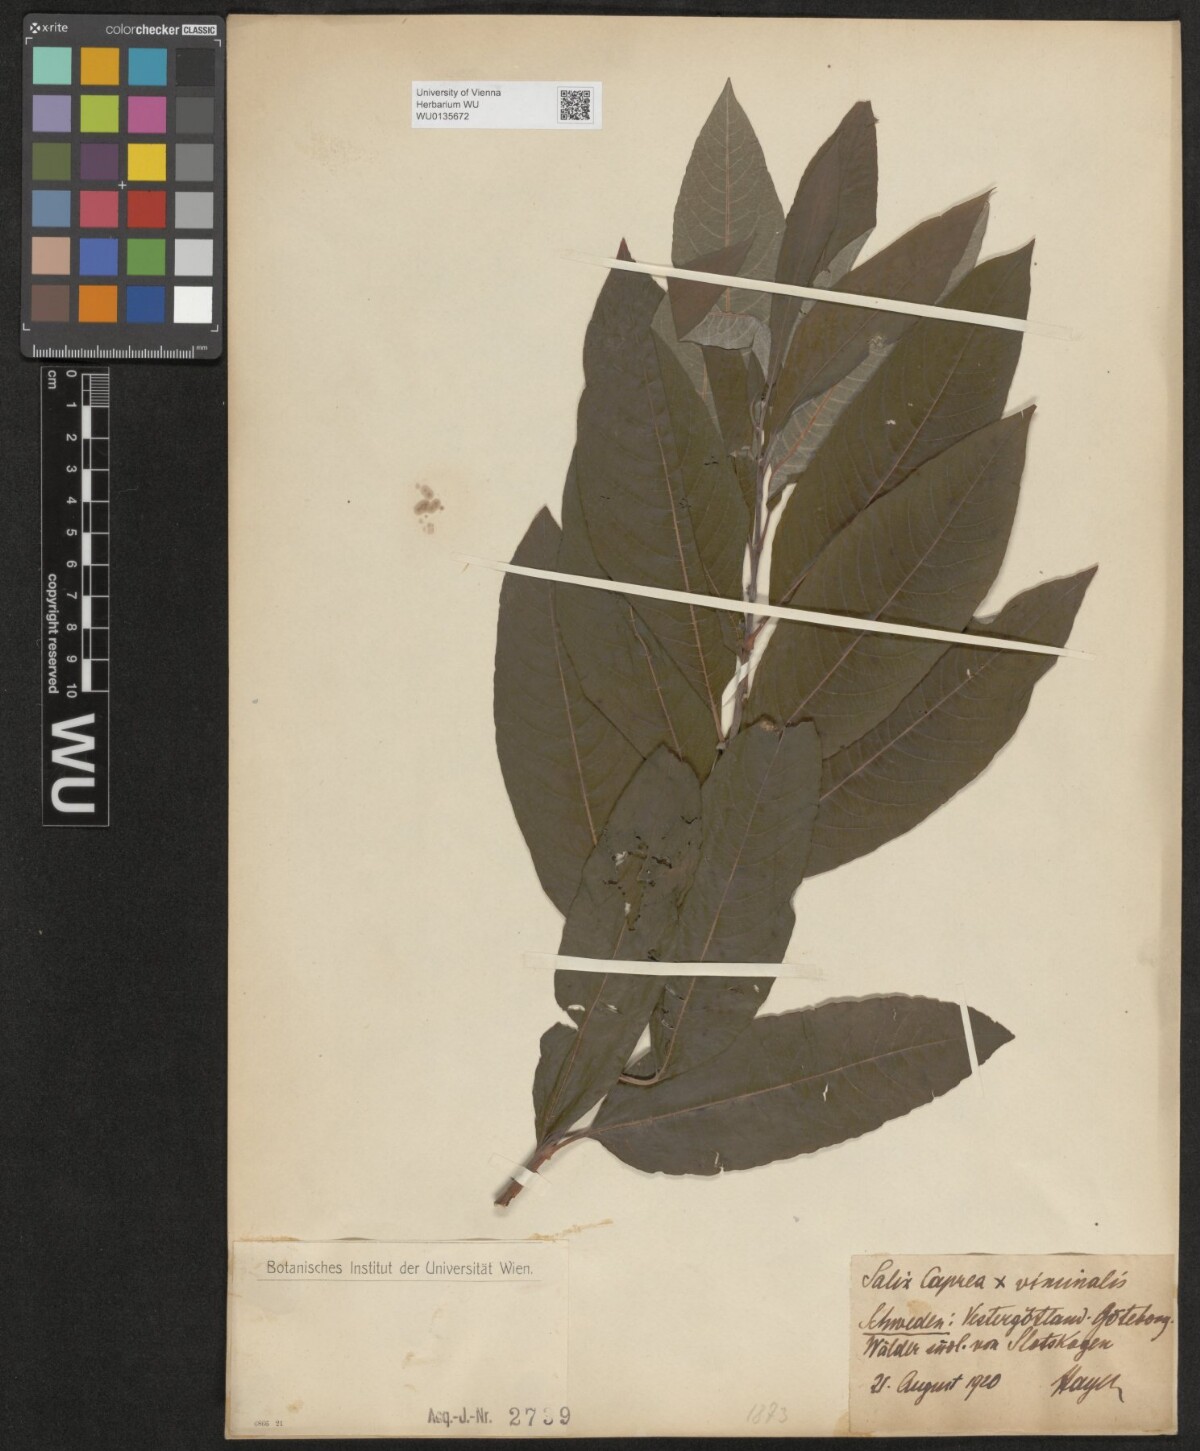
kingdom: Plantae
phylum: Tracheophyta
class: Magnoliopsida
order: Malpighiales
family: Salicaceae
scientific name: Salicaceae
